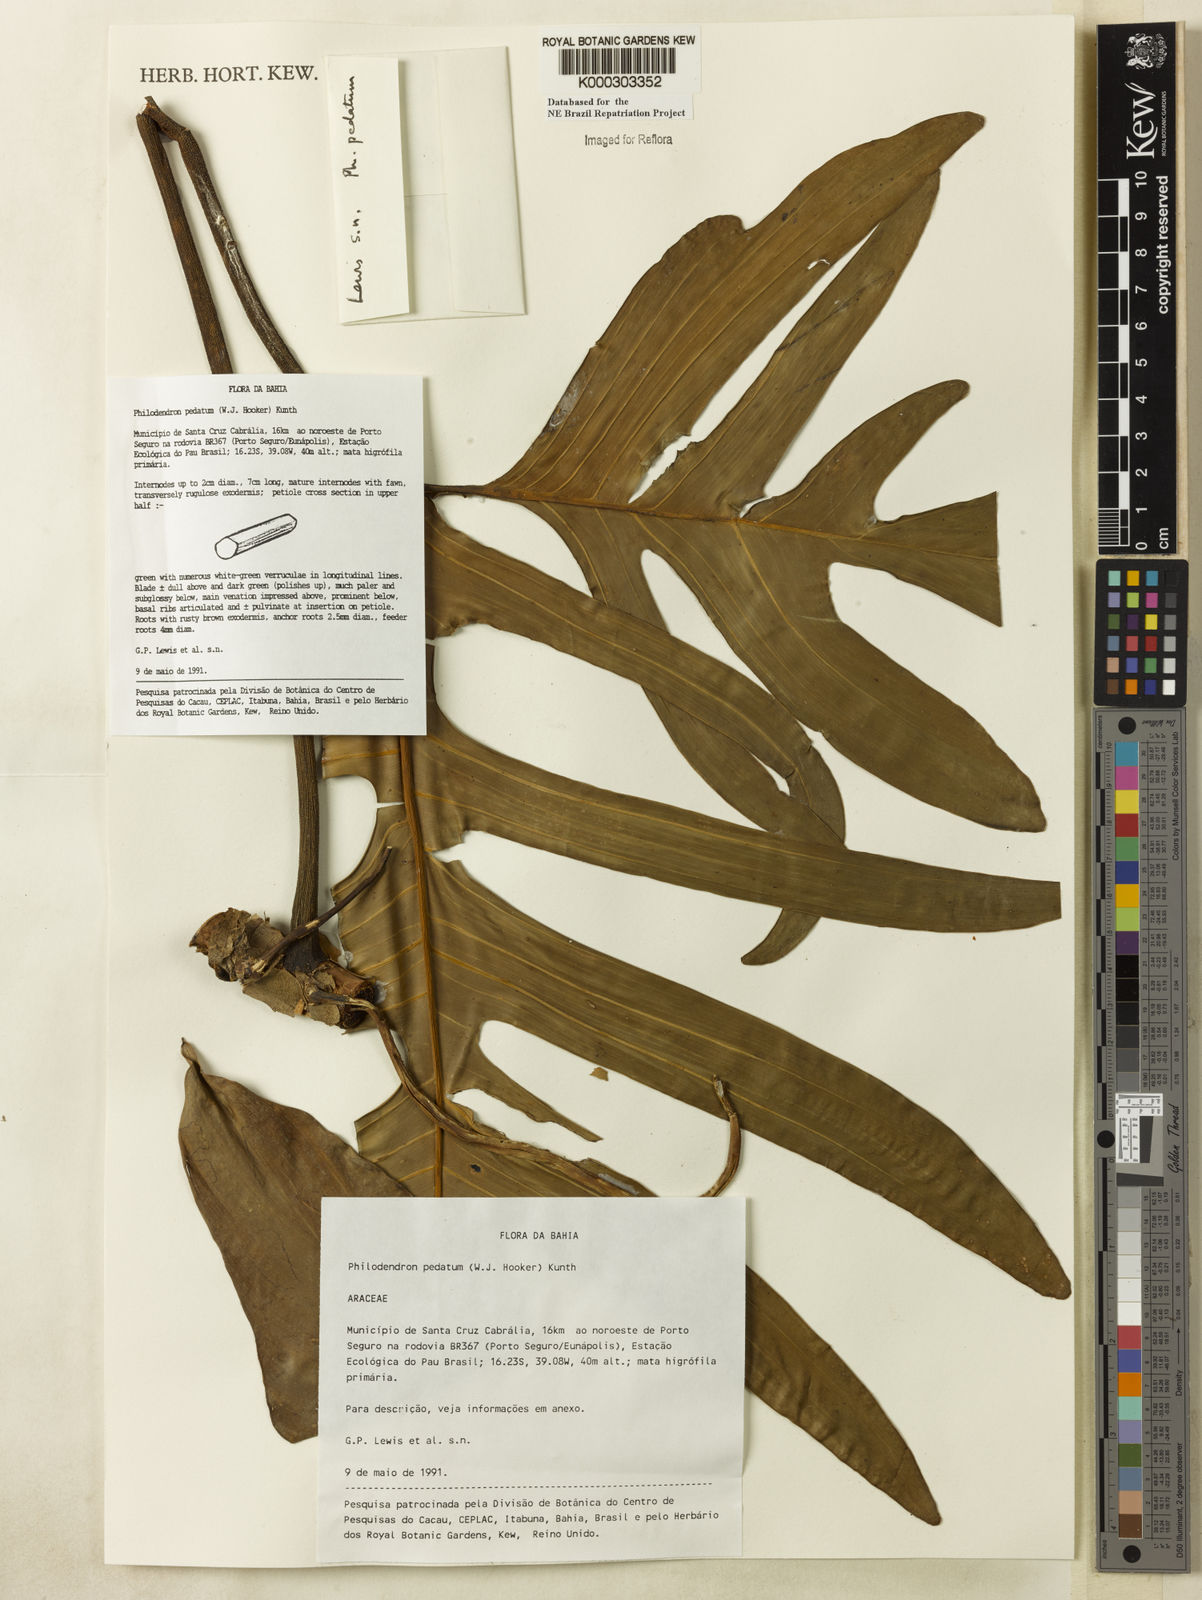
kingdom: Plantae
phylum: Tracheophyta
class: Liliopsida
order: Alismatales
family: Araceae
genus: Philodendron
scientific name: Philodendron pedatum
